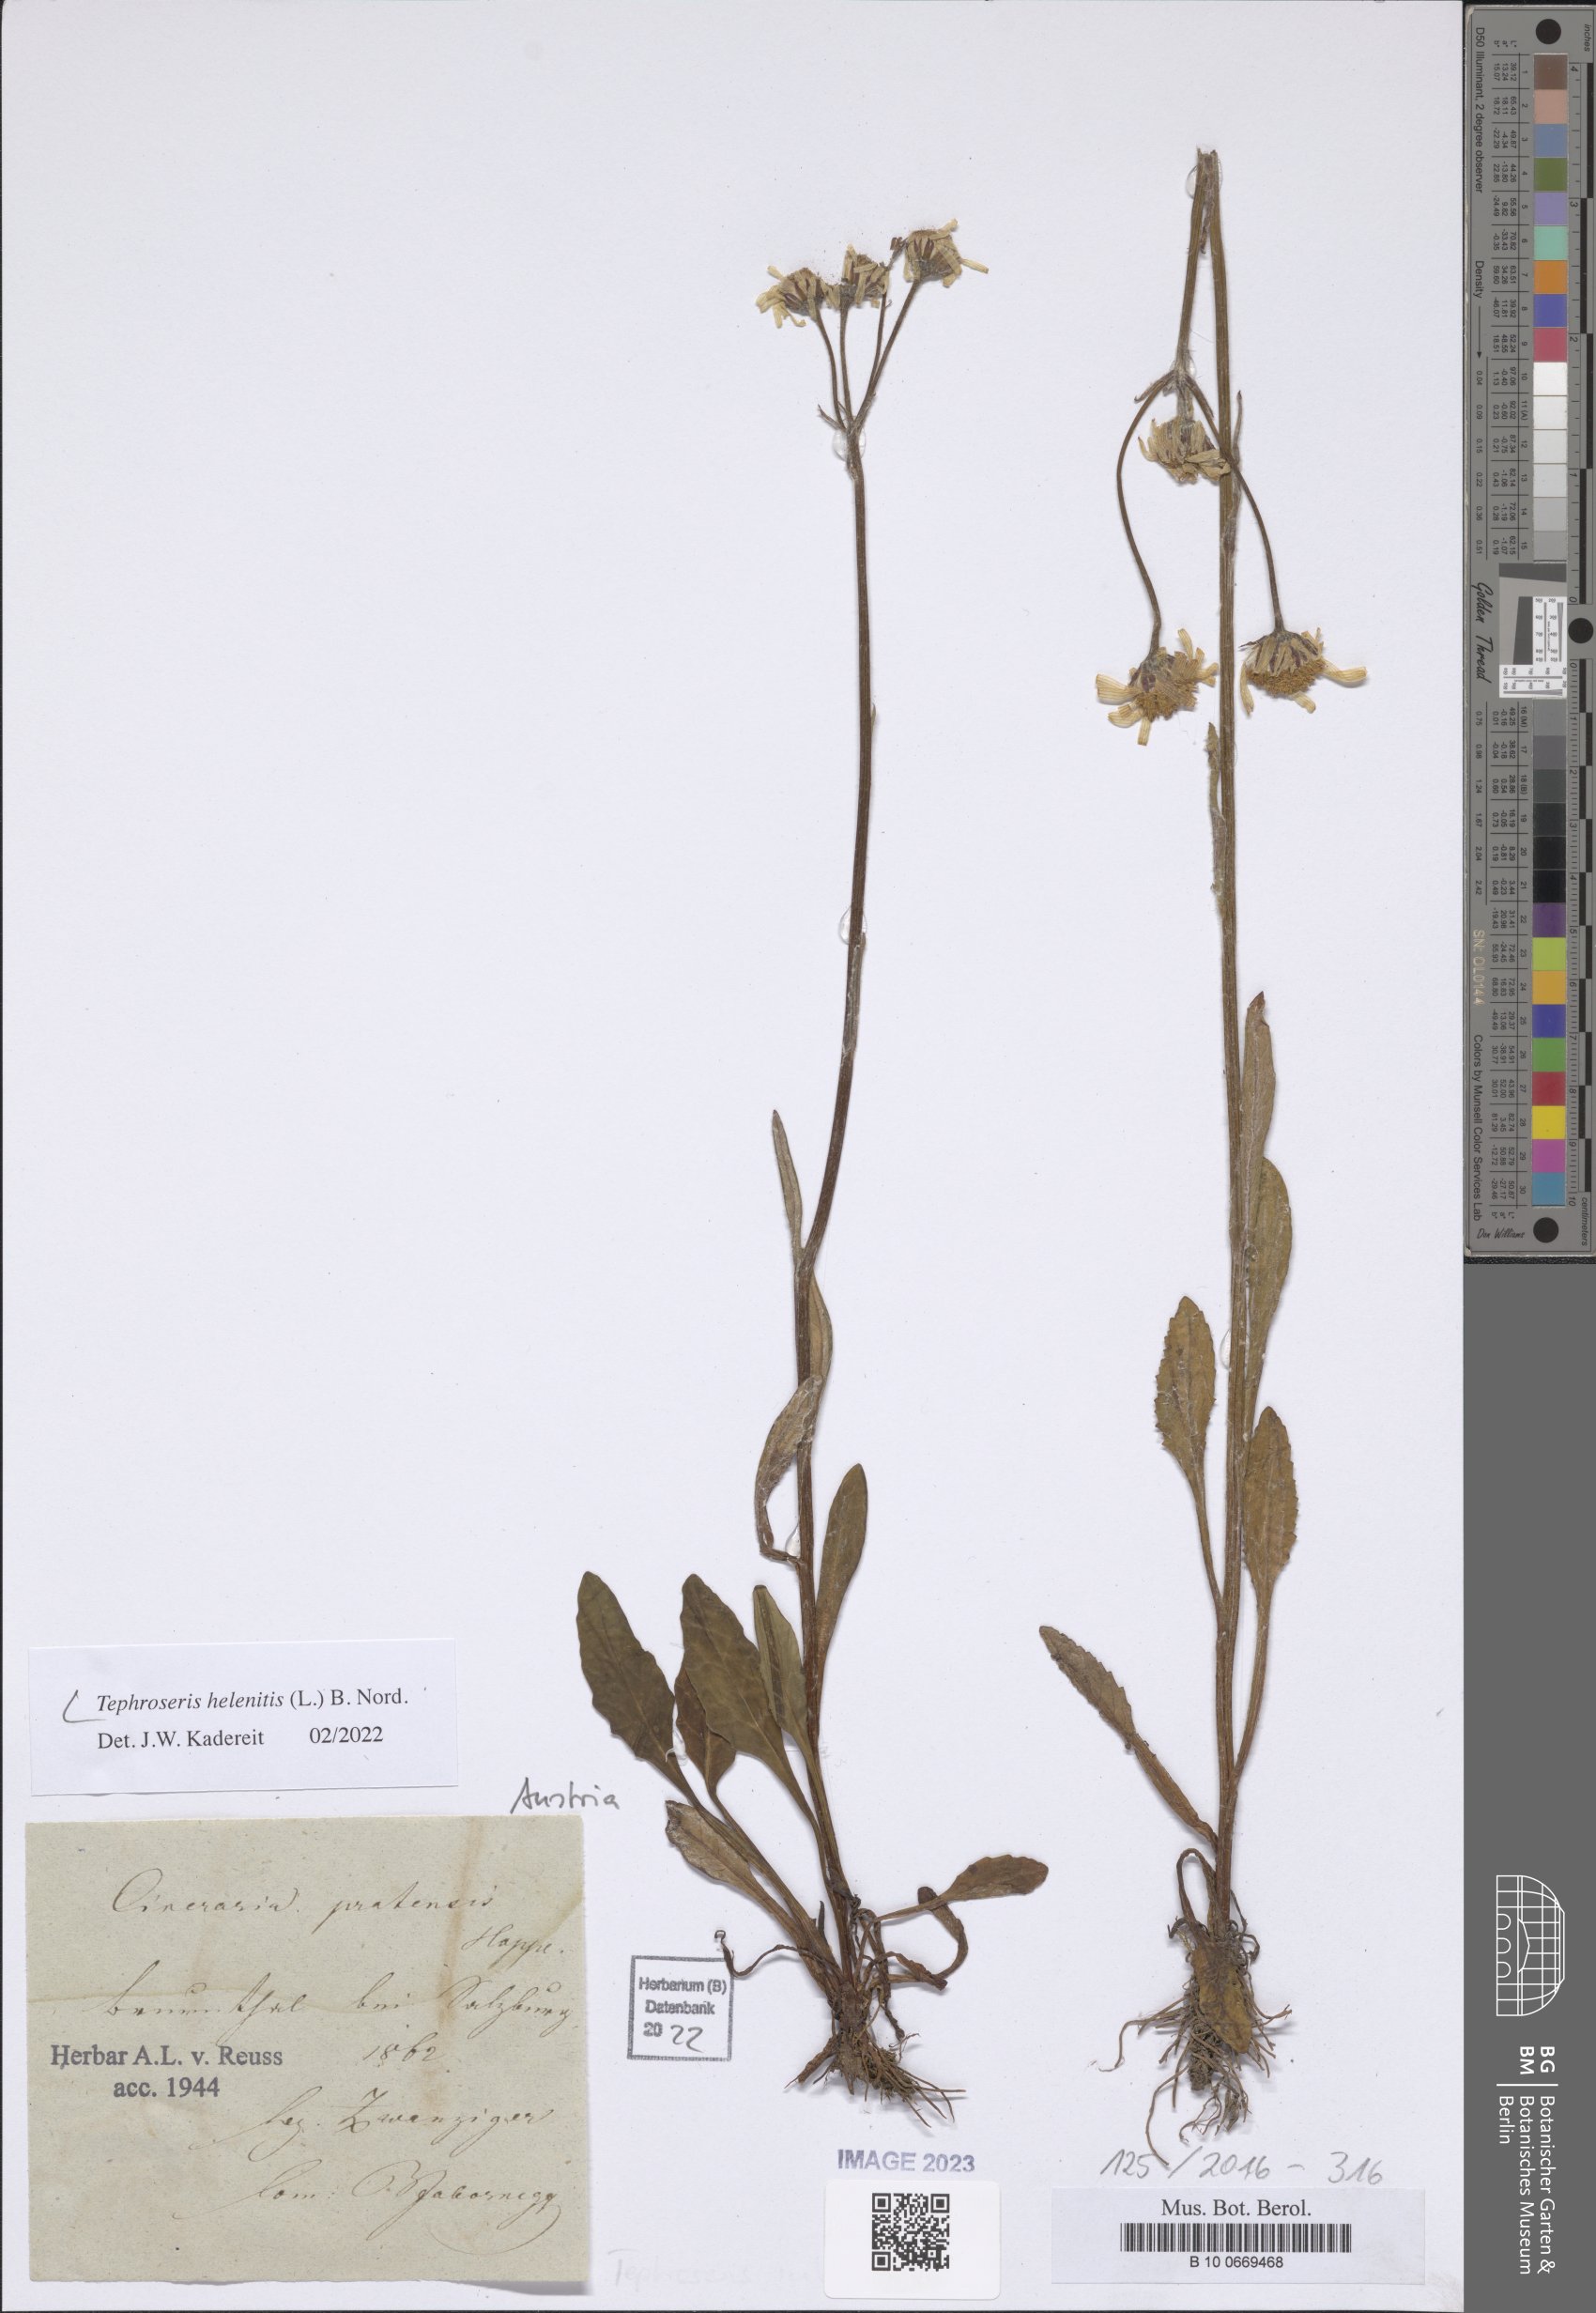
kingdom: Plantae
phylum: Tracheophyta
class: Magnoliopsida
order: Asterales
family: Asteraceae
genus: Tephroseris
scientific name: Tephroseris helenitis
